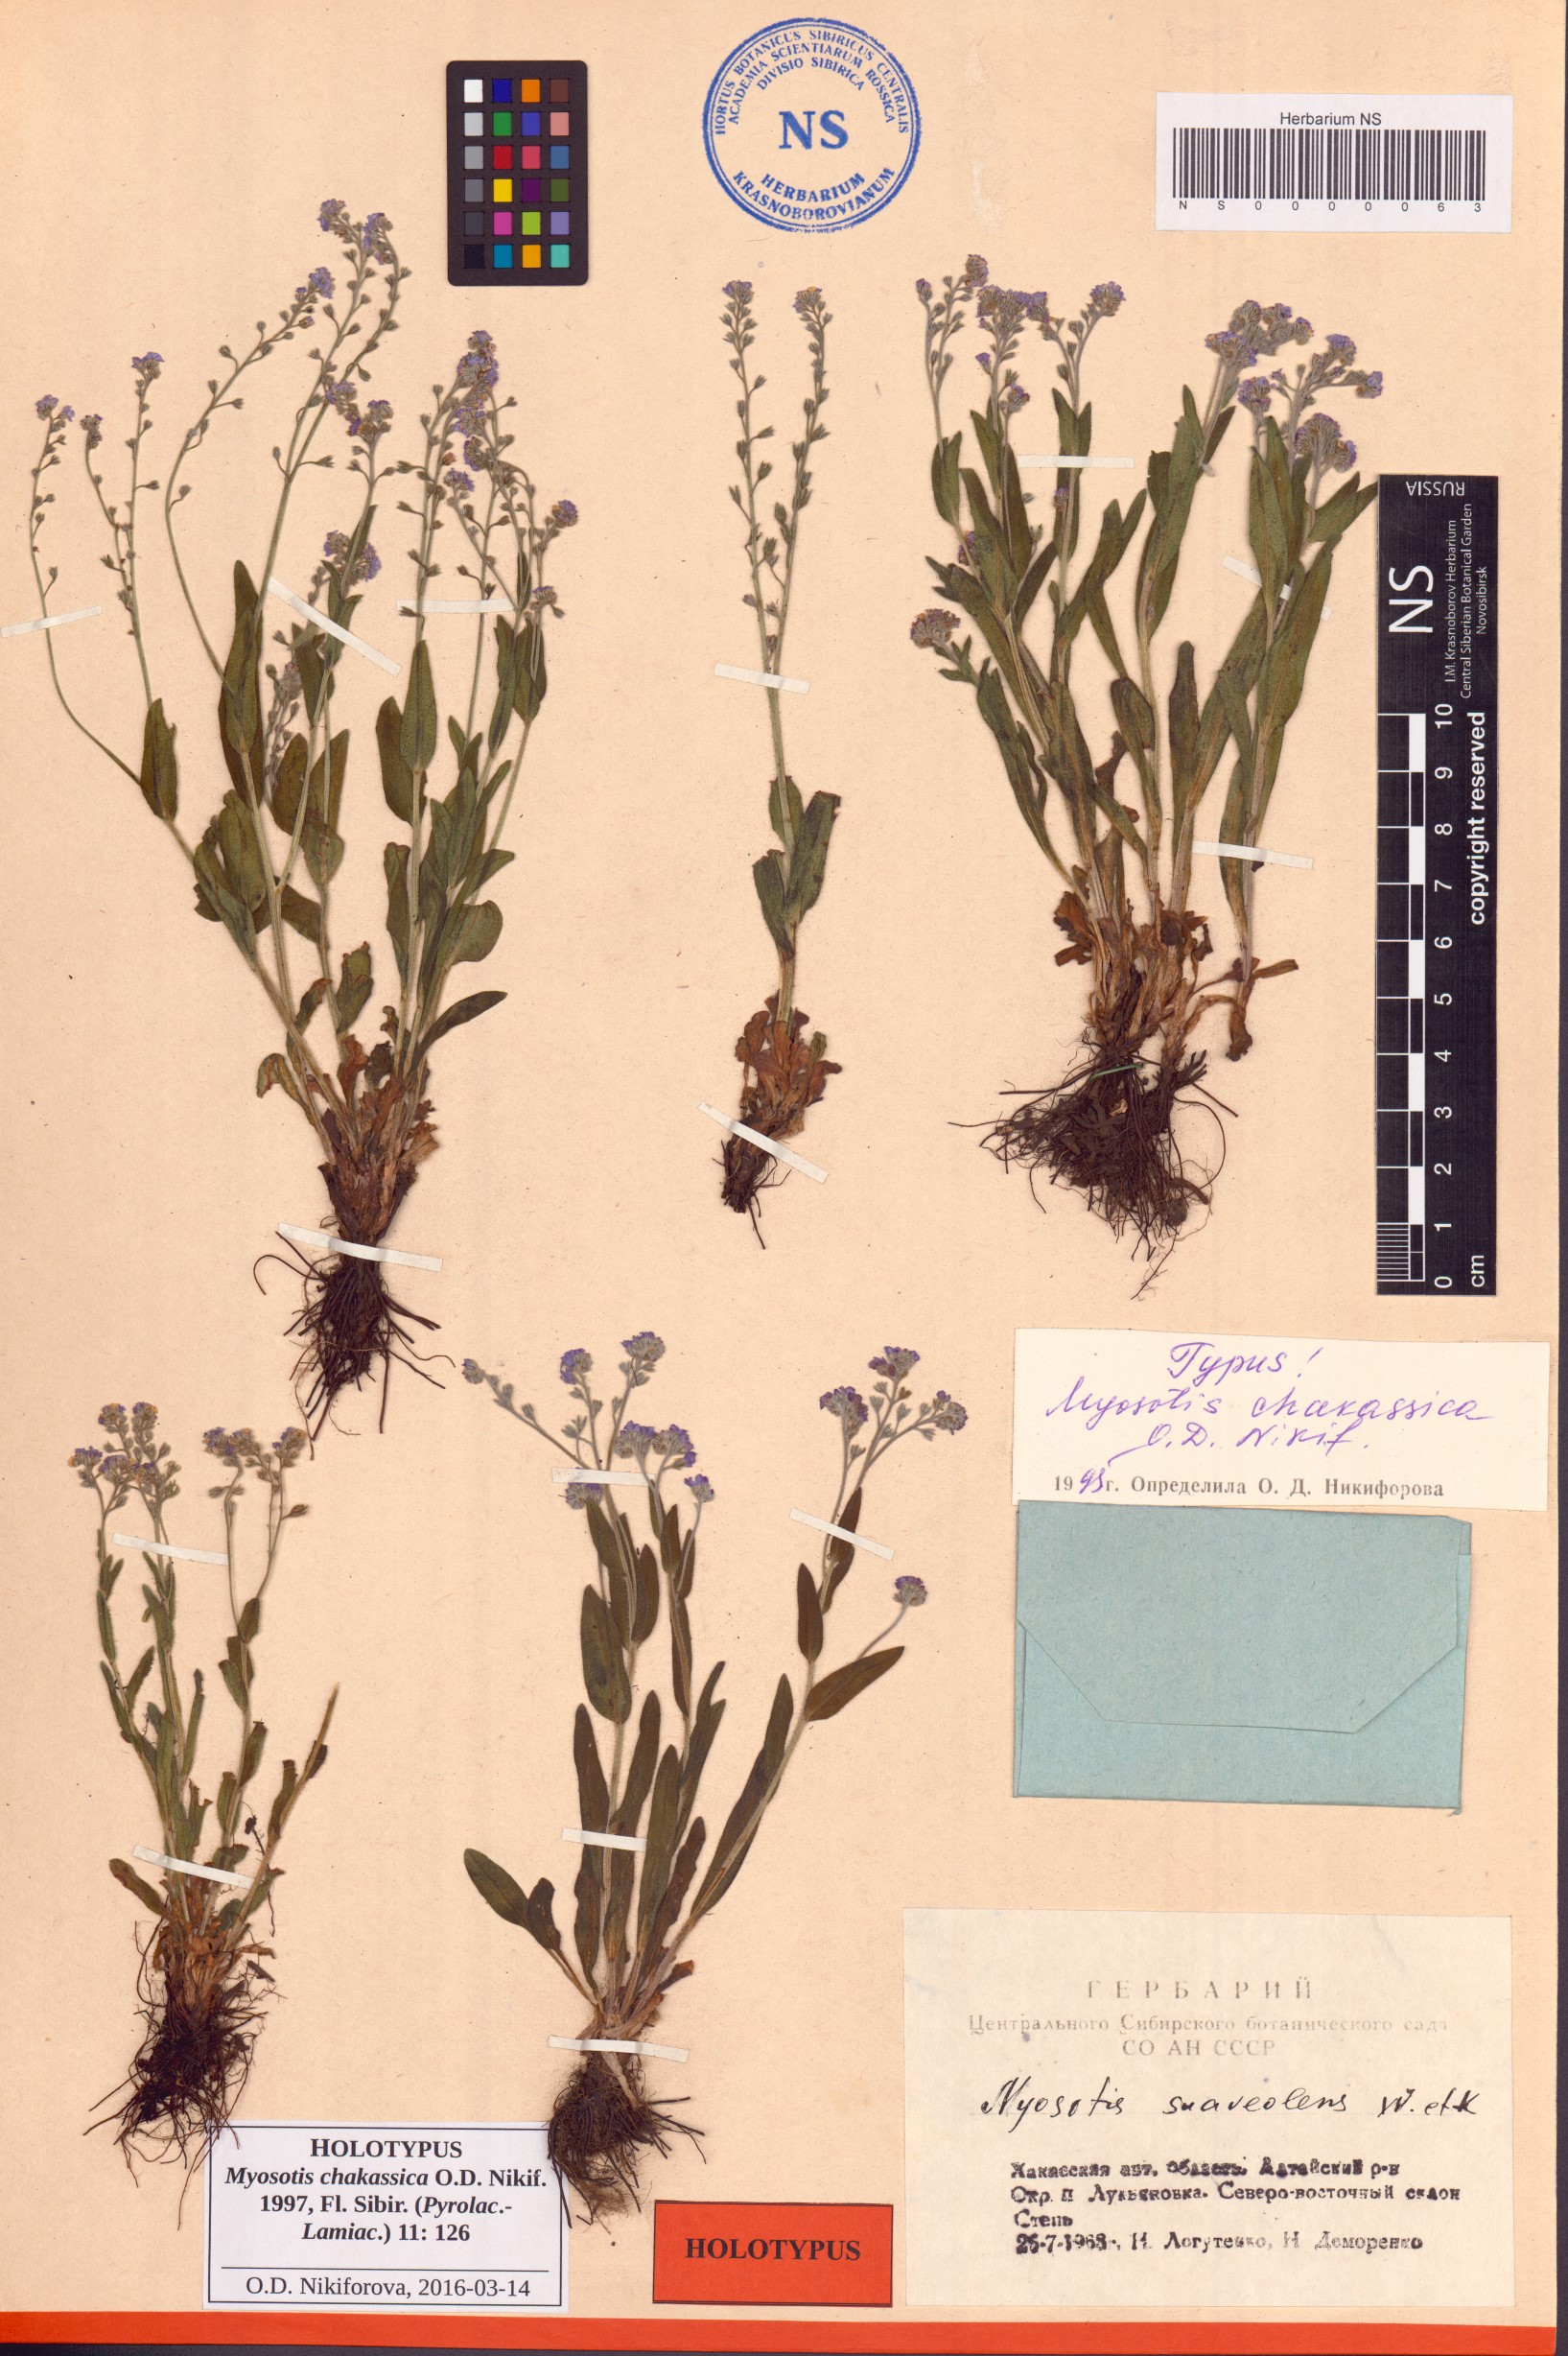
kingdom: Plantae
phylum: Tracheophyta
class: Magnoliopsida
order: Boraginales
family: Boraginaceae
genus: Myosotis
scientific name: Myosotis chakassica
